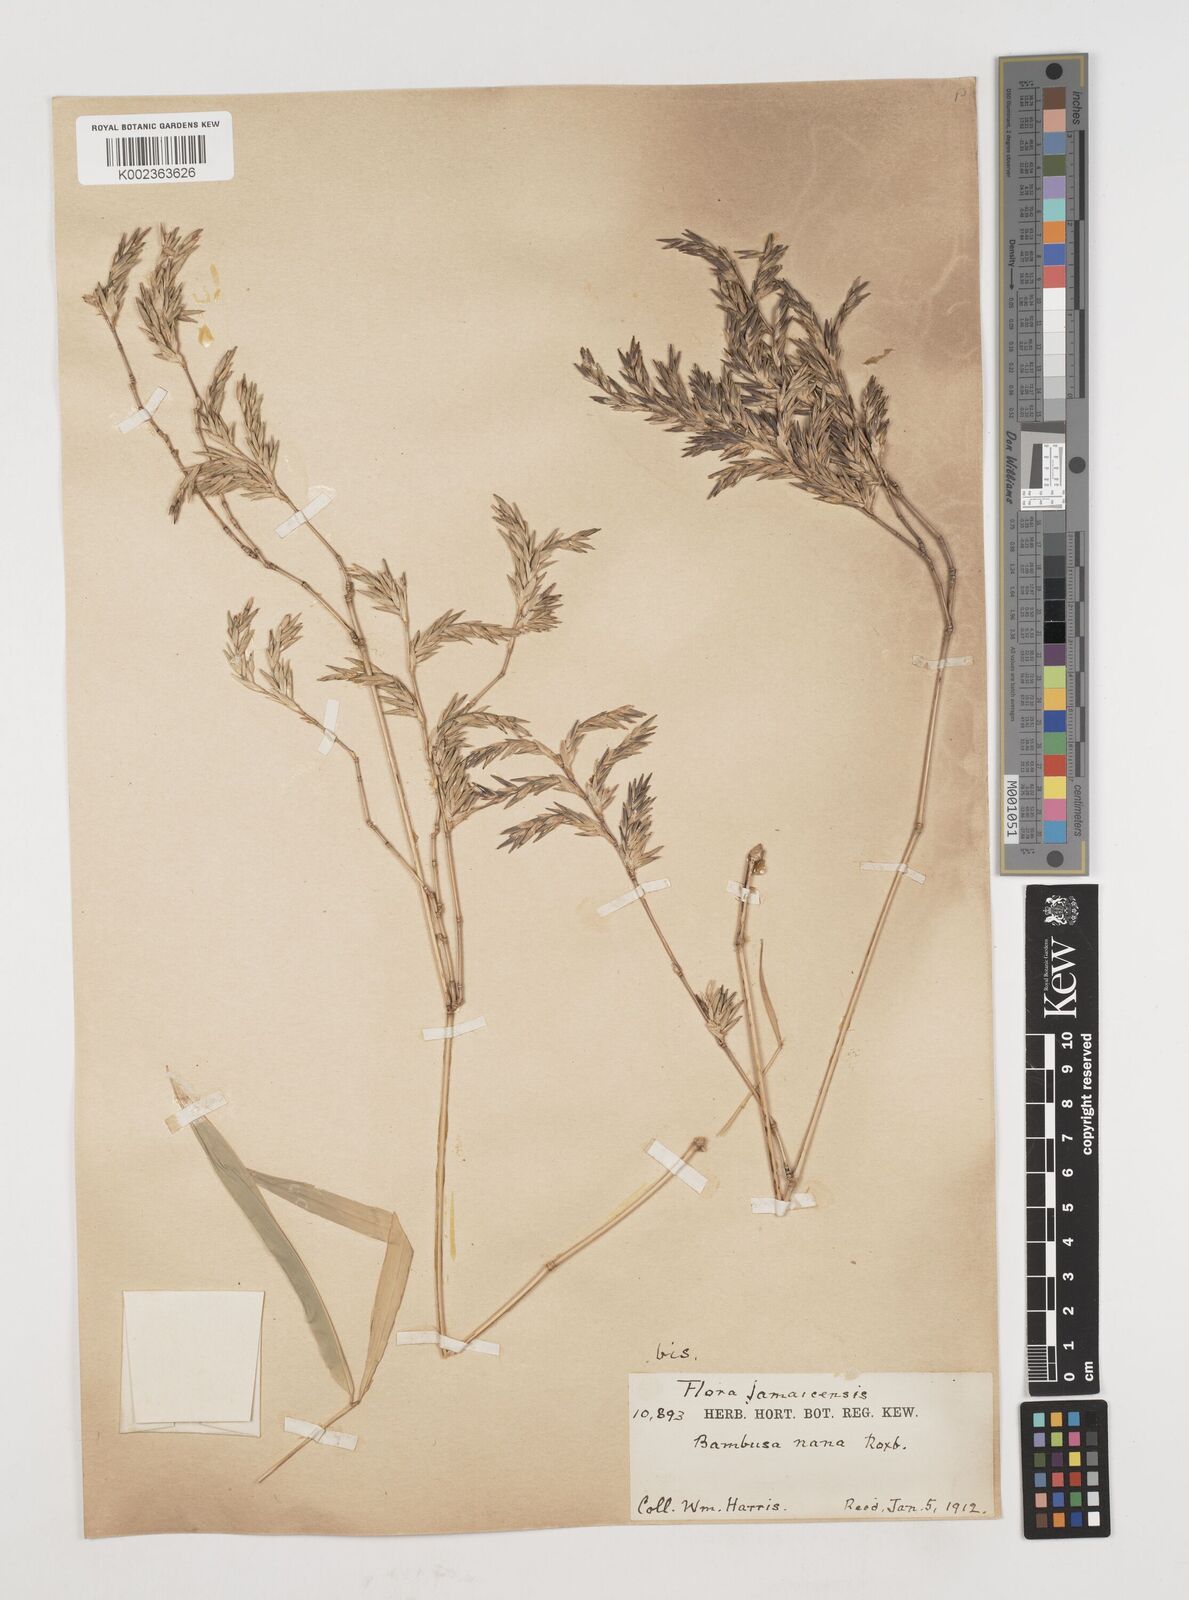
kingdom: Plantae
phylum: Tracheophyta
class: Liliopsida
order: Poales
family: Poaceae
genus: Himalayacalamus
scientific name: Himalayacalamus falconeri
